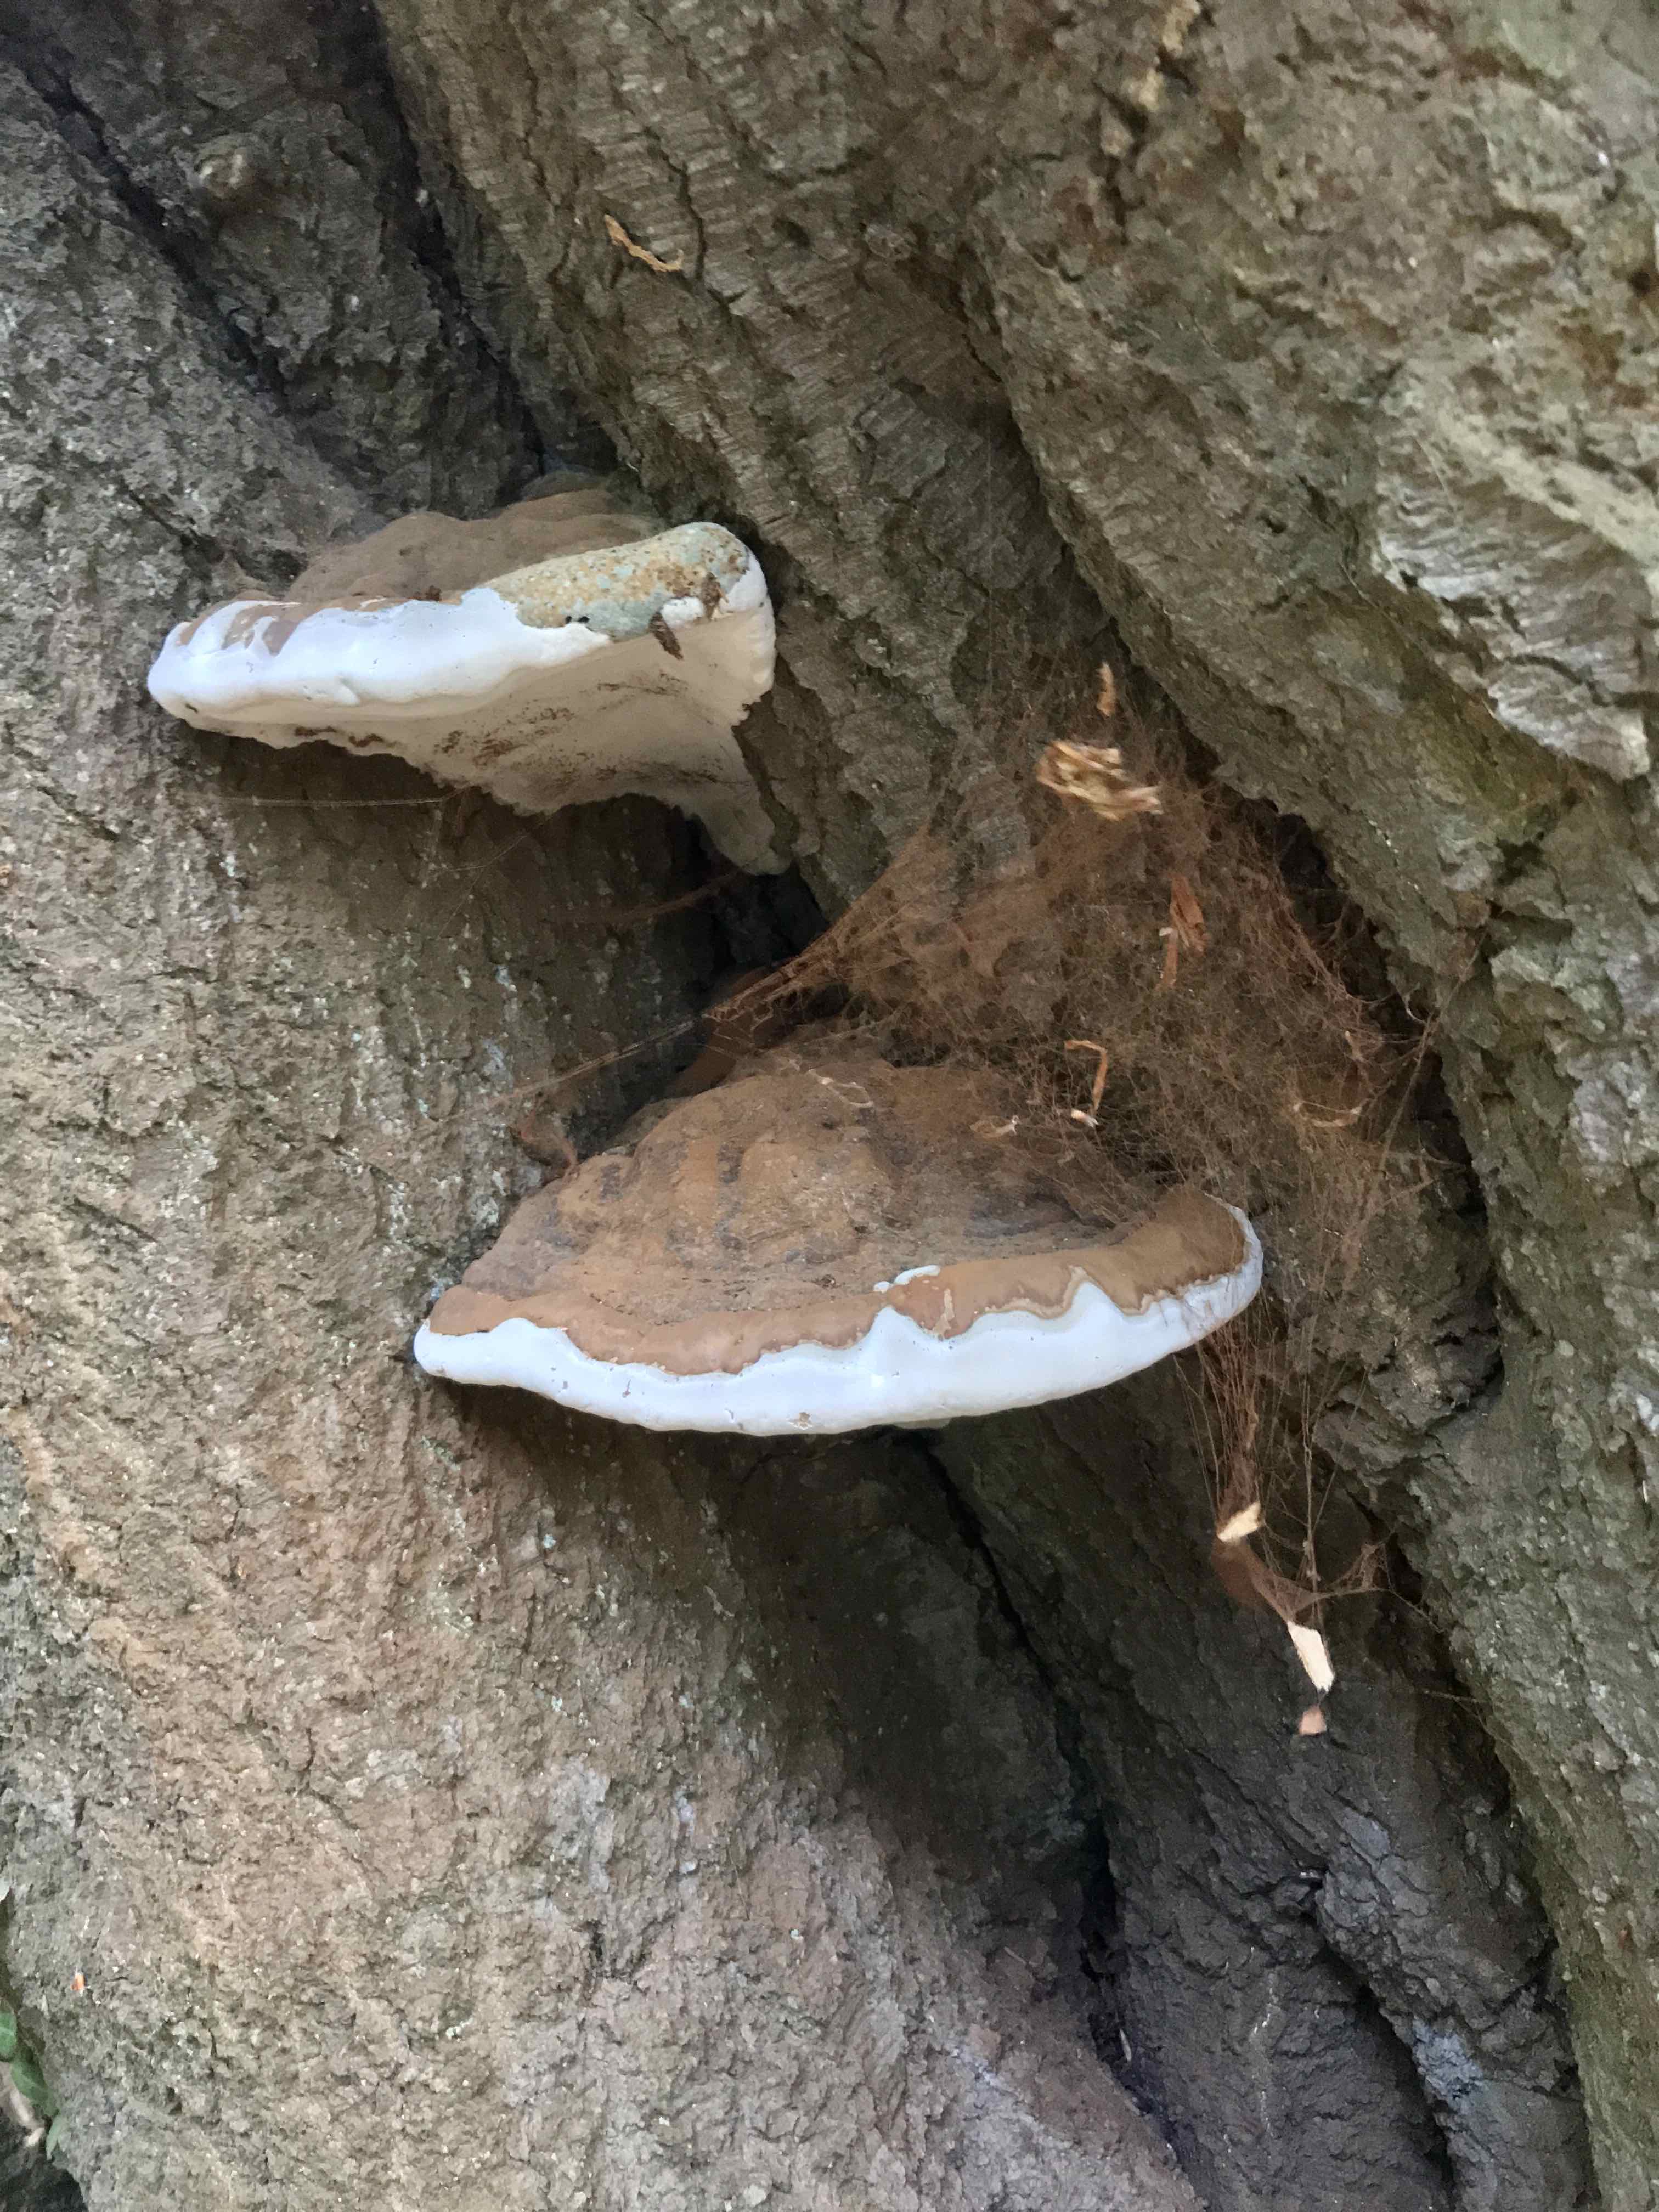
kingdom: Fungi
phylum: Basidiomycota
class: Agaricomycetes
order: Polyporales
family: Polyporaceae
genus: Ganoderma
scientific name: Ganoderma resinaceum
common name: gyldenbrun lakporesvamp
